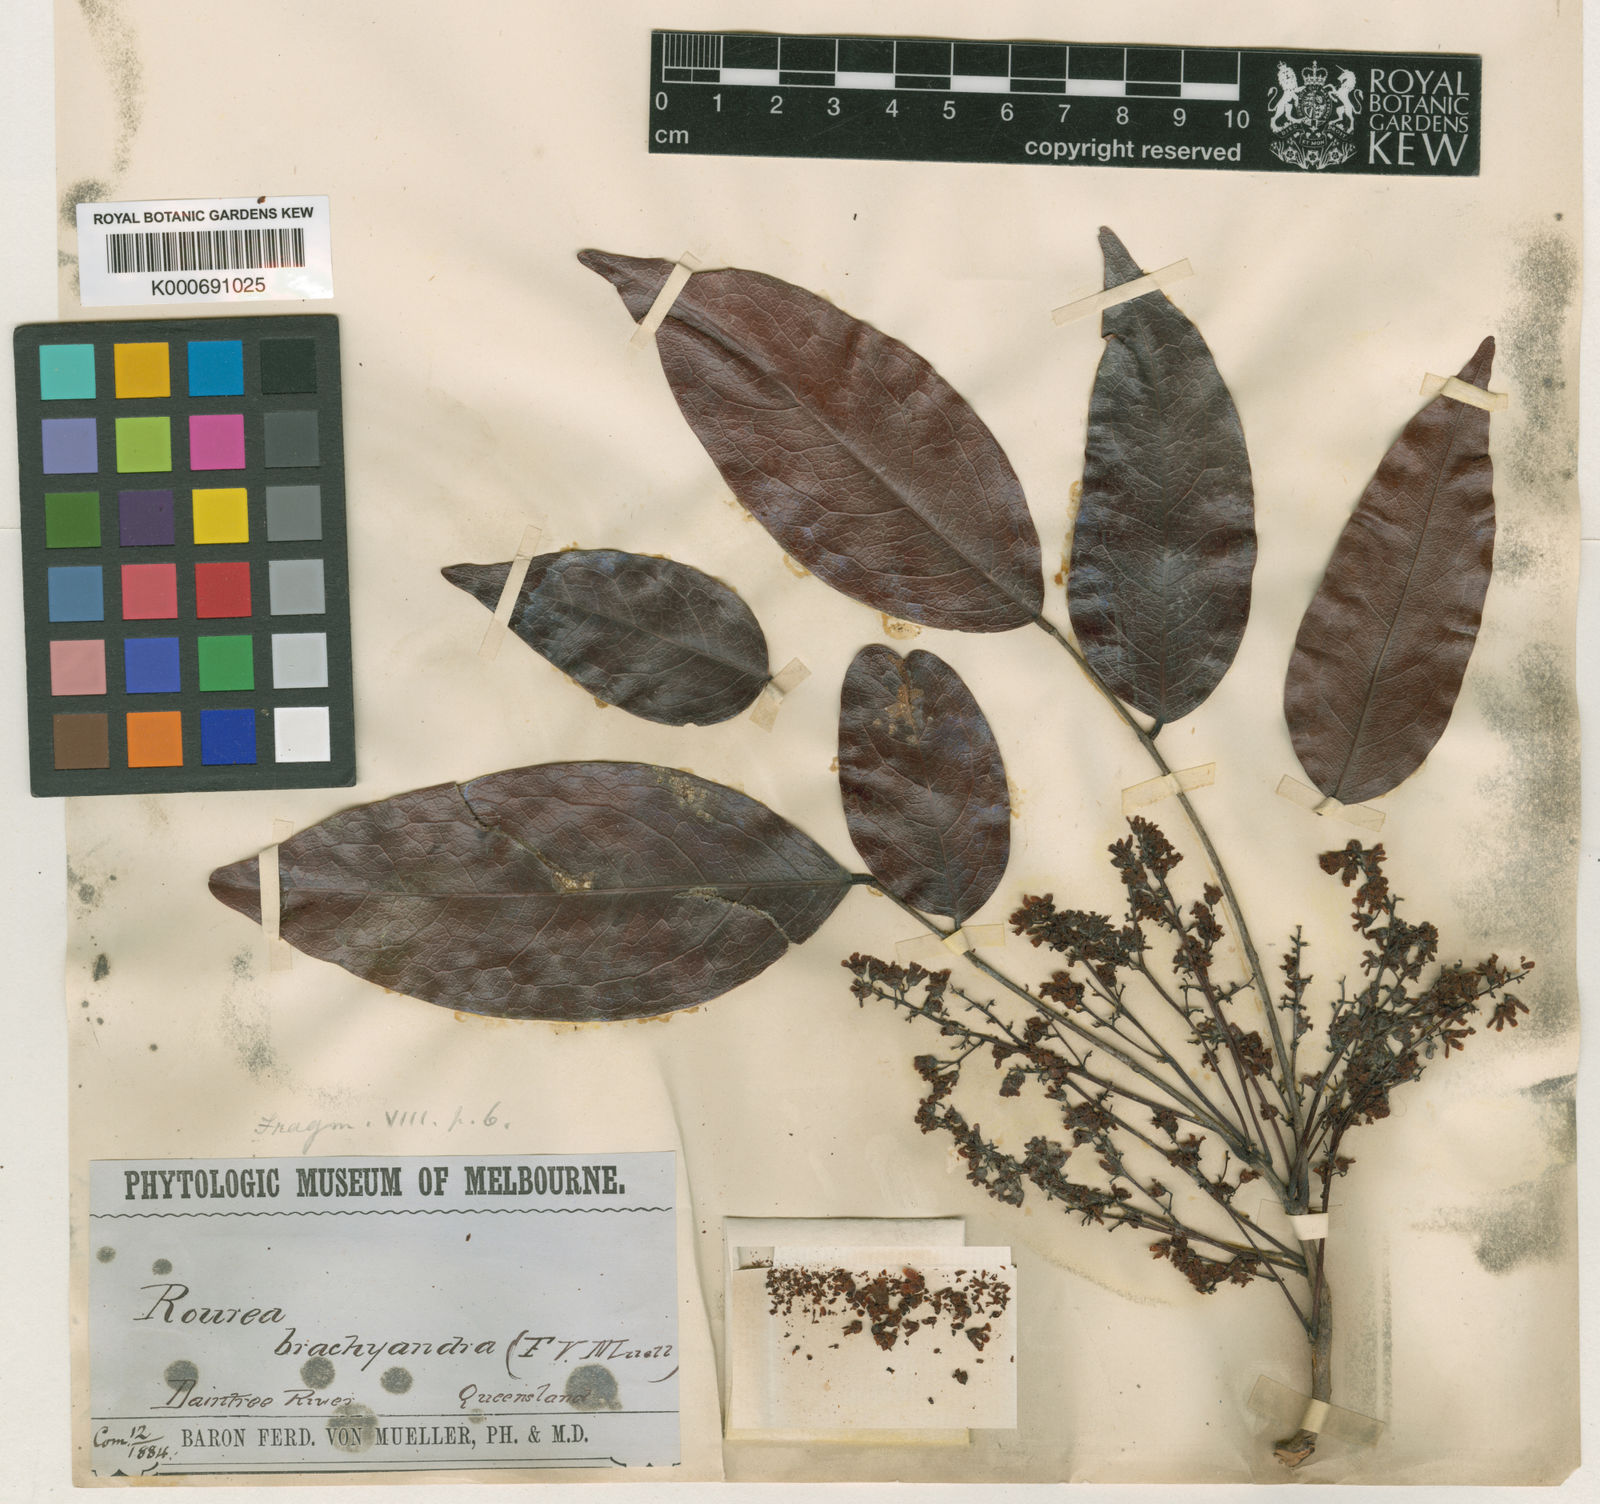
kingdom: Plantae
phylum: Tracheophyta
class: Magnoliopsida
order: Oxalidales
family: Connaraceae
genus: Rourea
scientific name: Rourea
